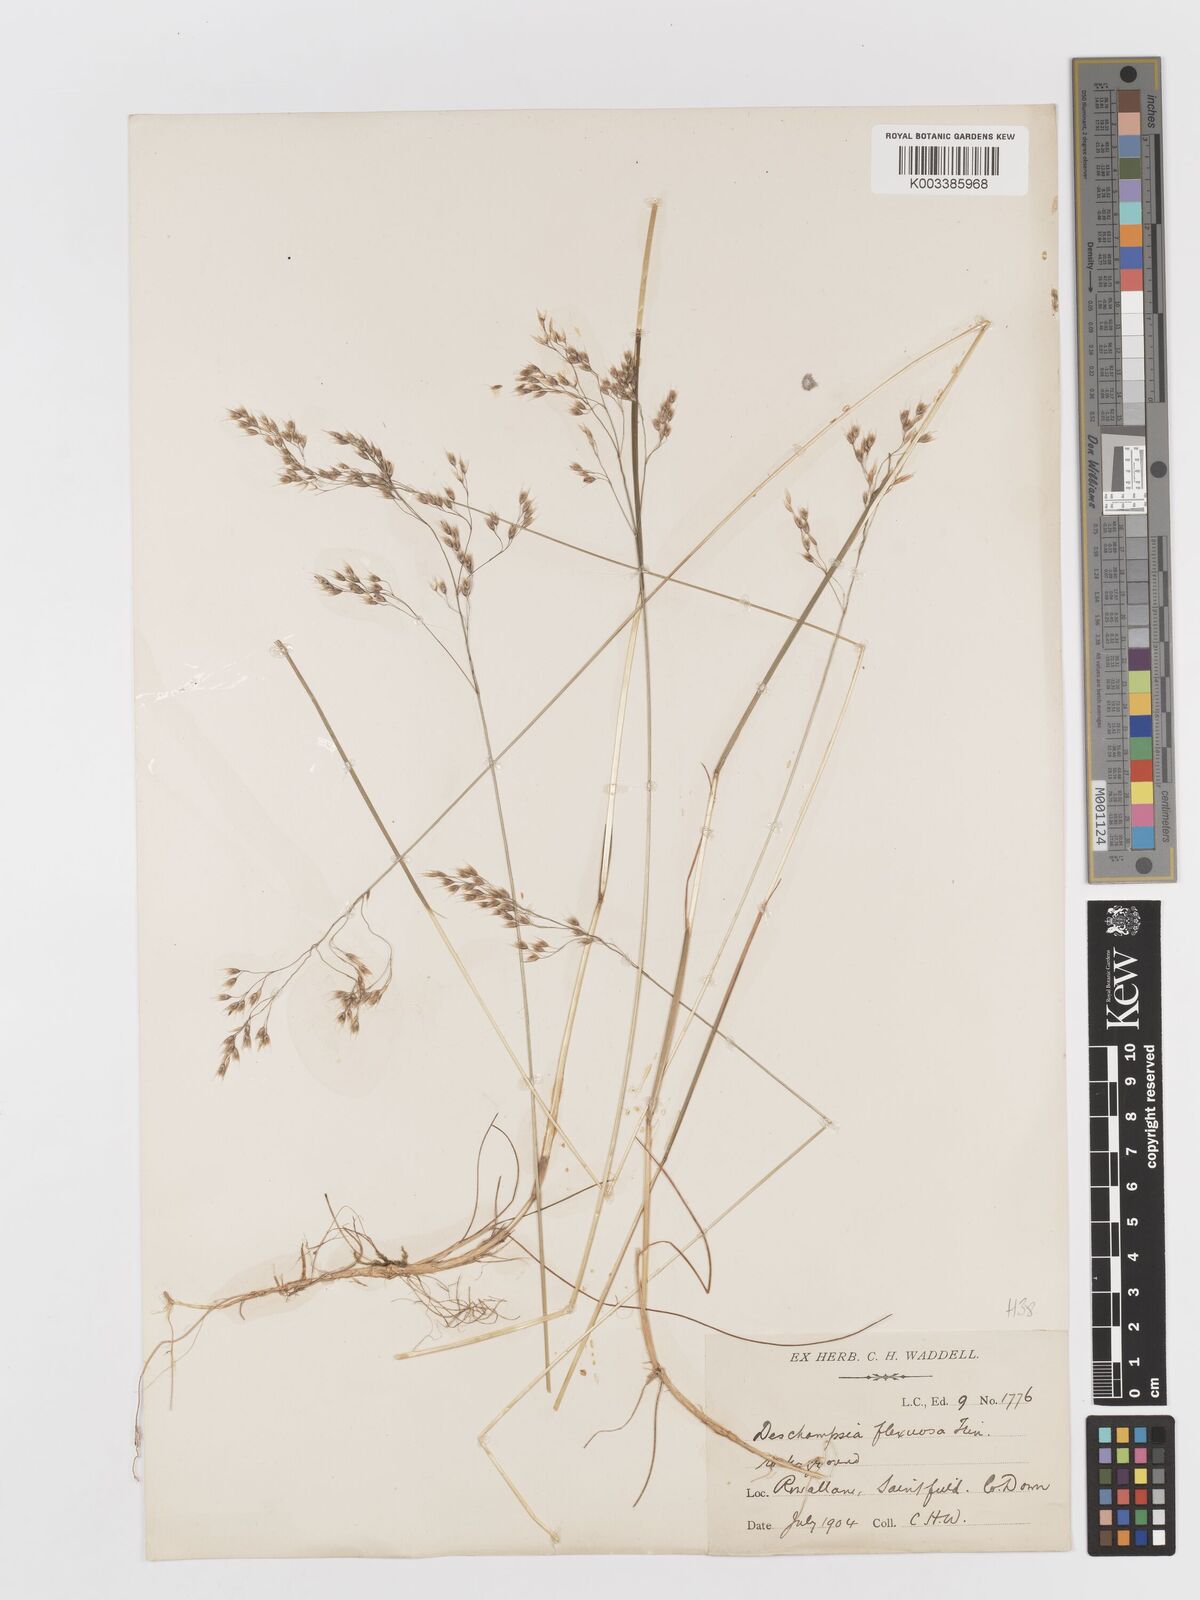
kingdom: Plantae
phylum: Tracheophyta
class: Liliopsida
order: Poales
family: Poaceae
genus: Avenella
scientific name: Avenella flexuosa
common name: Wavy hairgrass
